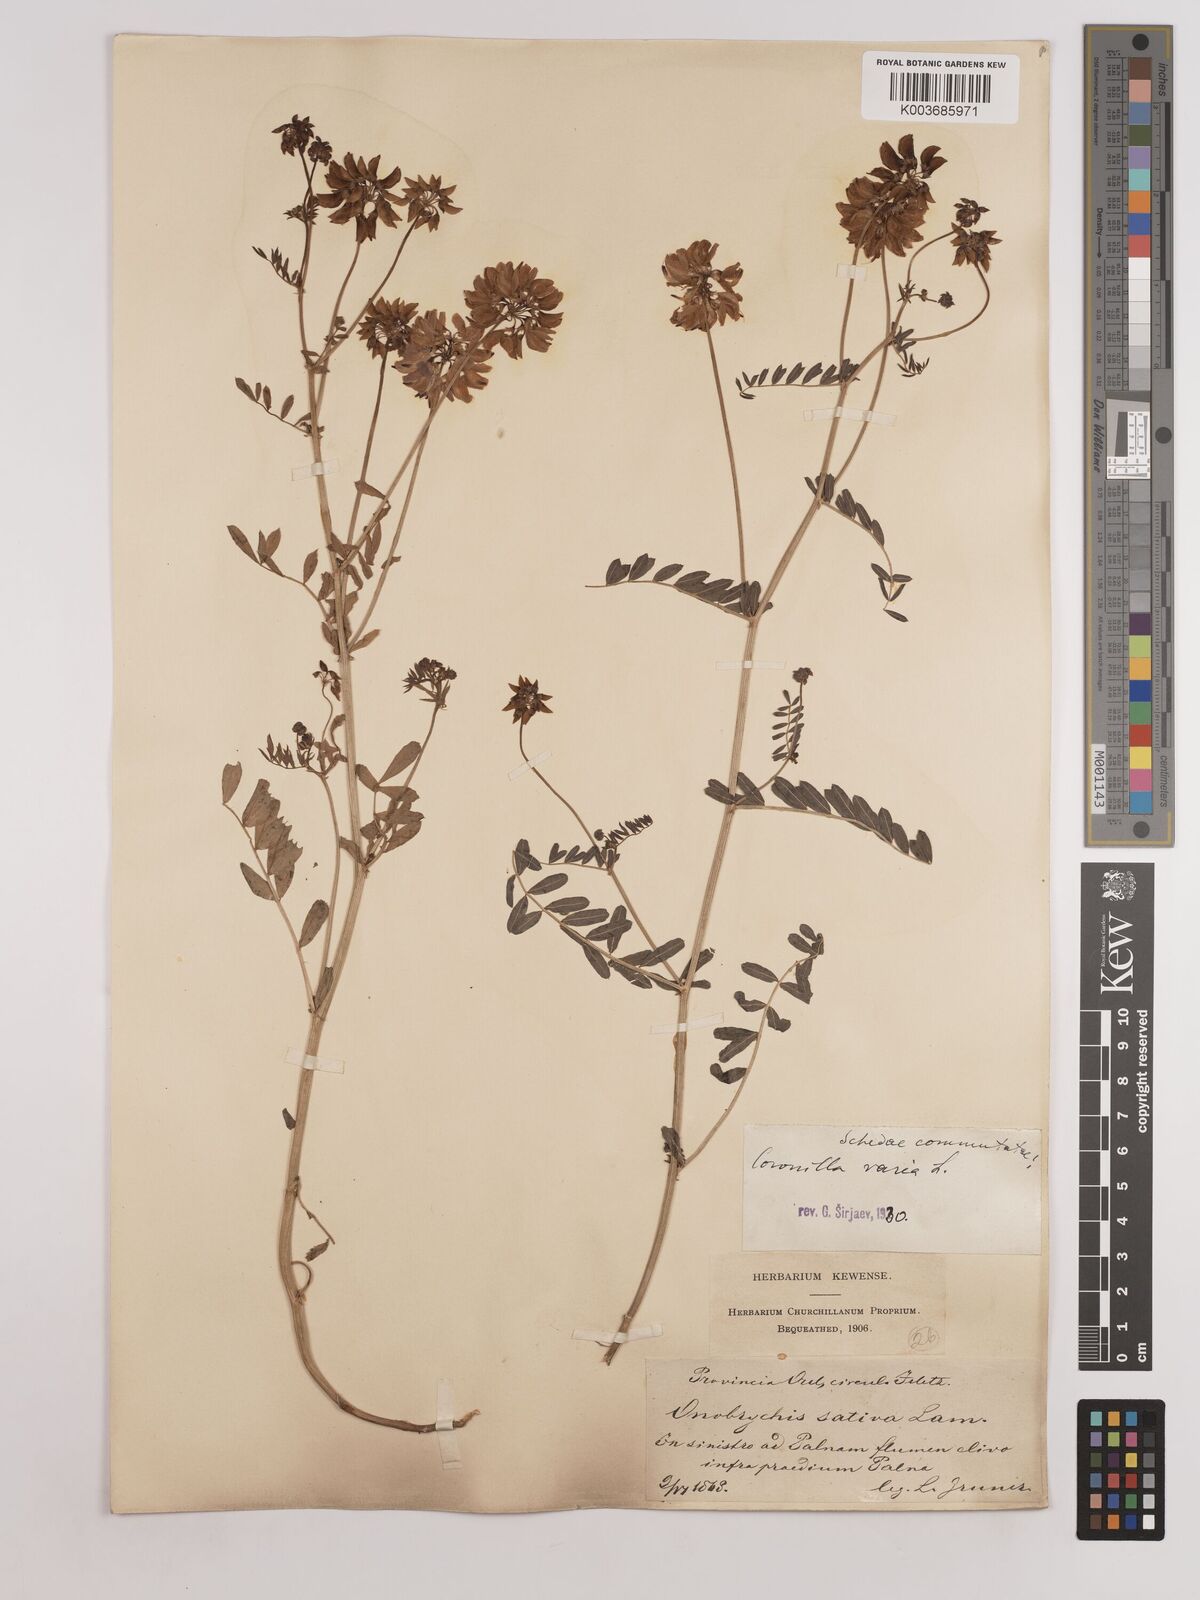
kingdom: Plantae
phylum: Tracheophyta
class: Magnoliopsida
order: Fabales
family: Fabaceae
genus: Coronilla
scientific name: Coronilla varia
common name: Crownvetch
